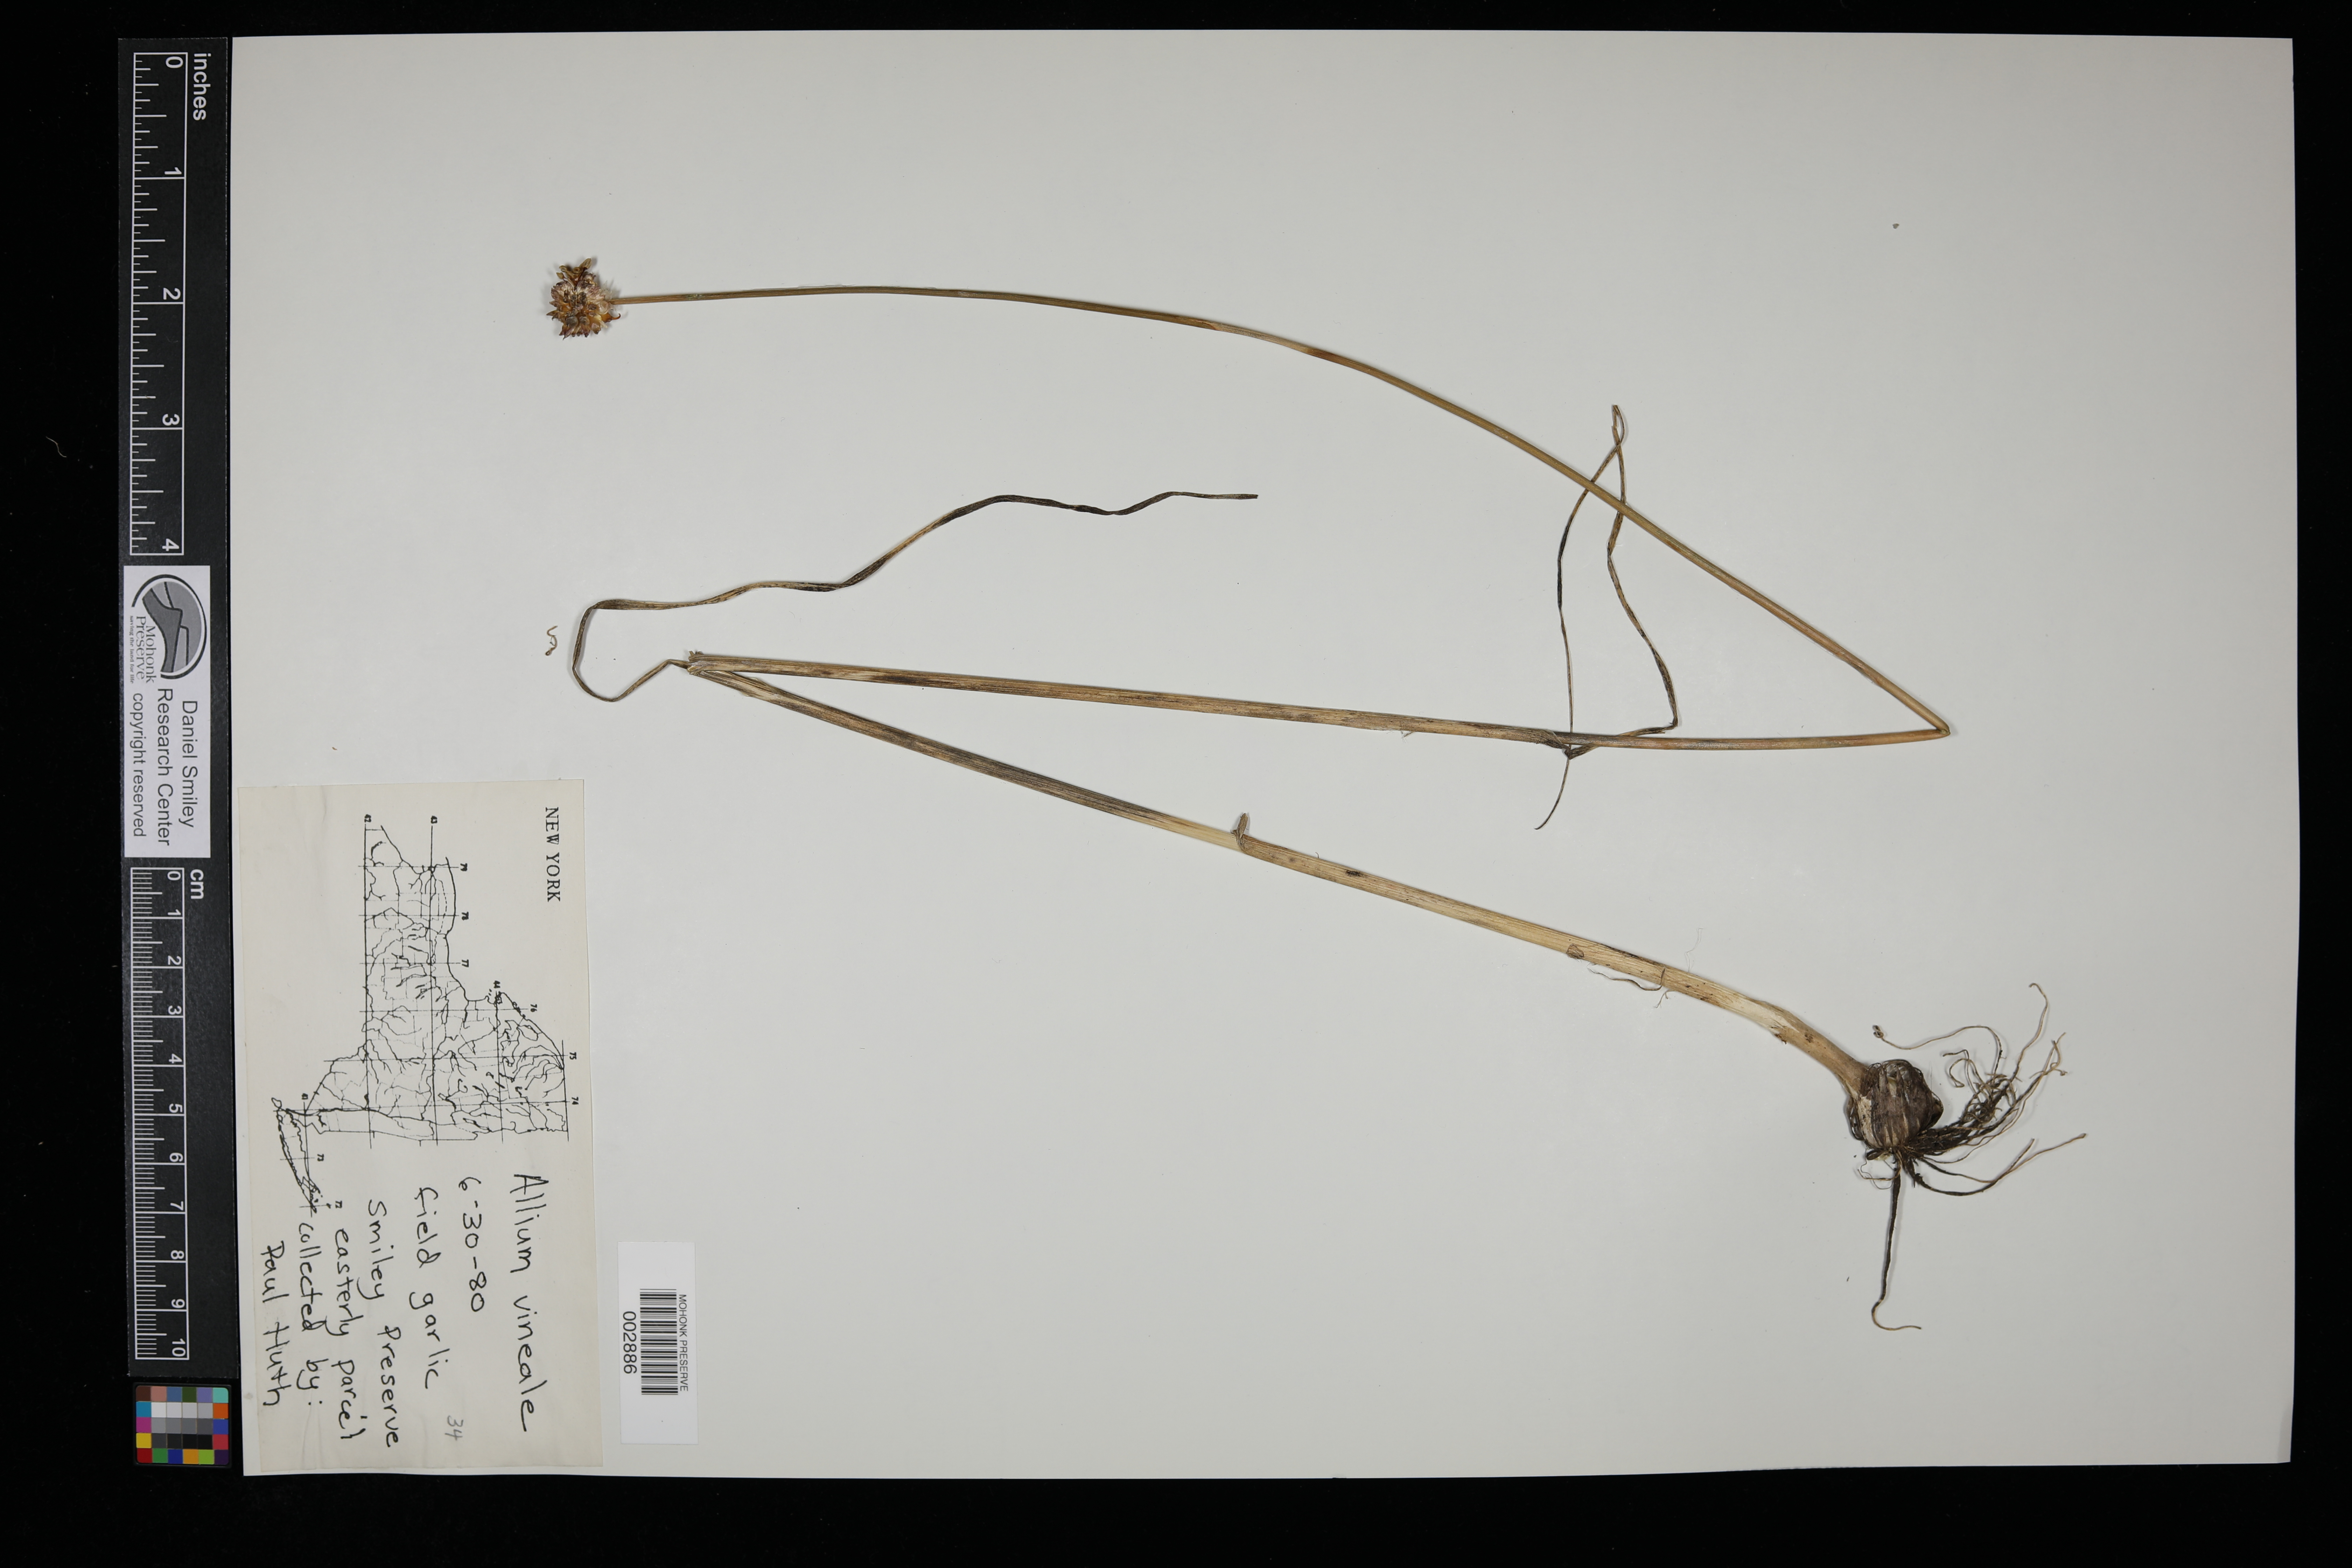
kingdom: Plantae
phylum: Tracheophyta
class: Liliopsida
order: Asparagales
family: Amaryllidaceae
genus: Allium
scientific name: Allium vineale
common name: Crow garlic
